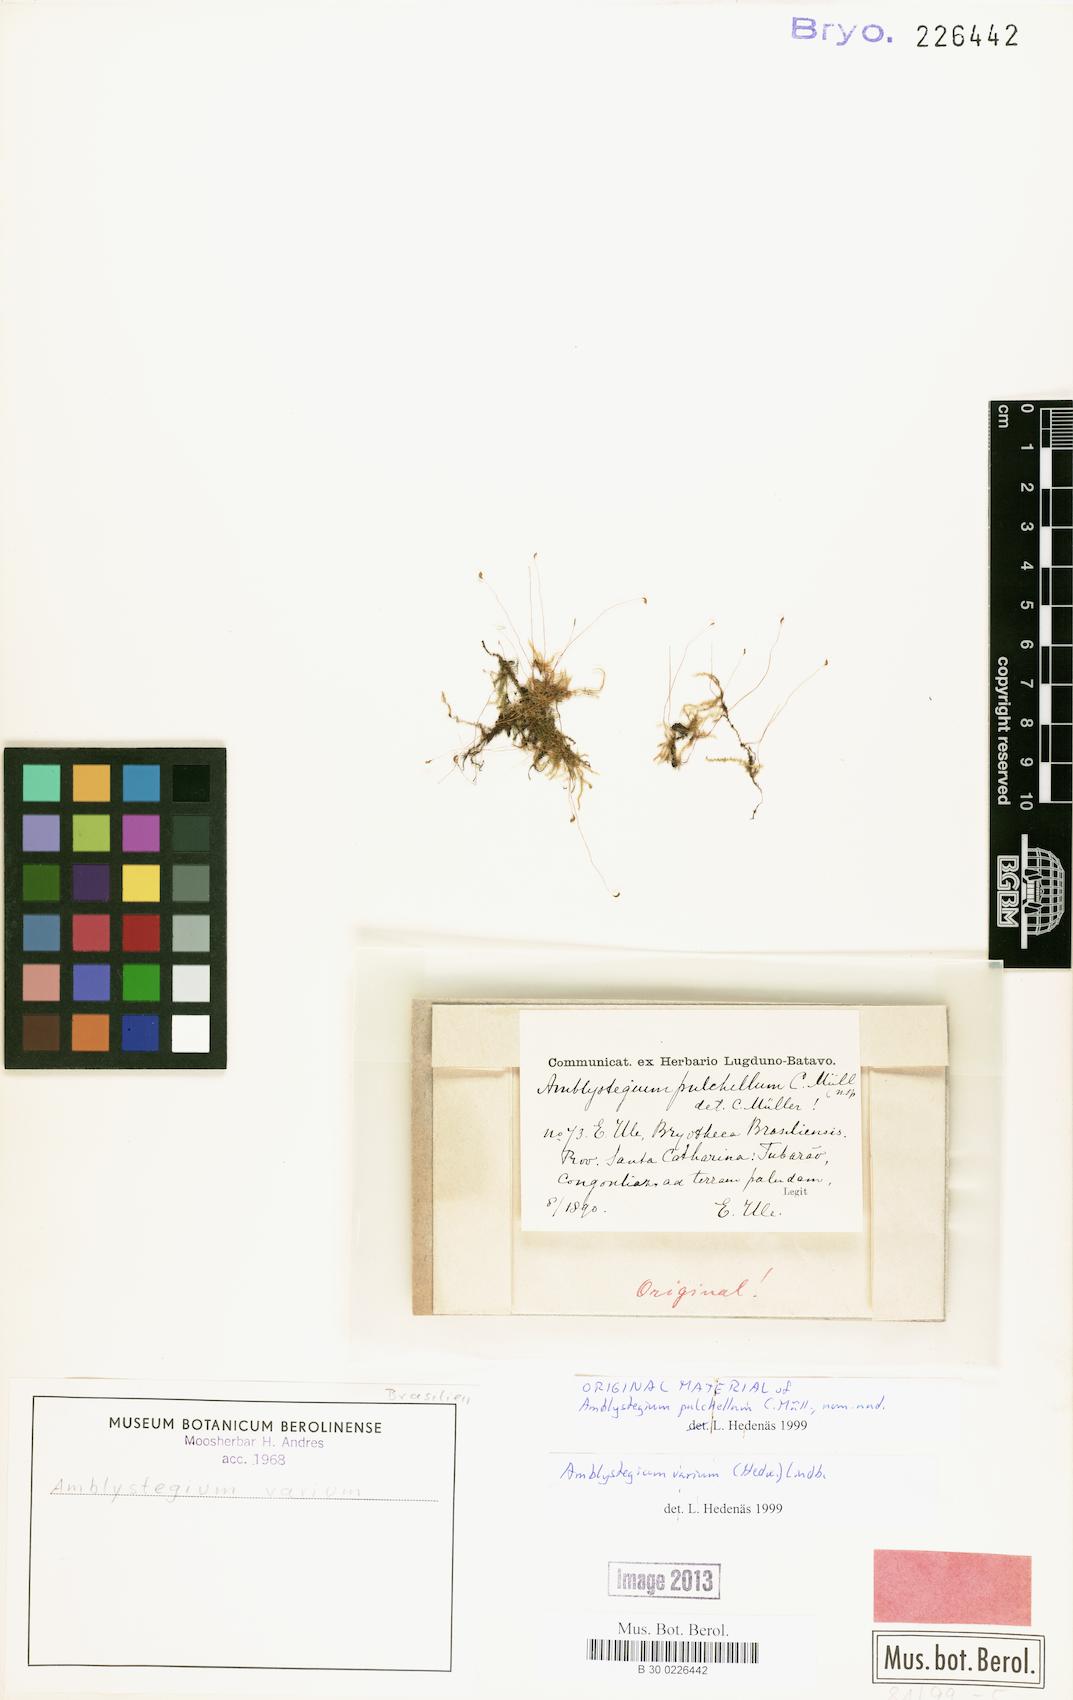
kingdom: Plantae
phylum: Bryophyta
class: Bryopsida
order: Hypnales
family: Amblystegiaceae
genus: Hygroamblystegium
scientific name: Hygroamblystegium varium
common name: Willow feather-moss
